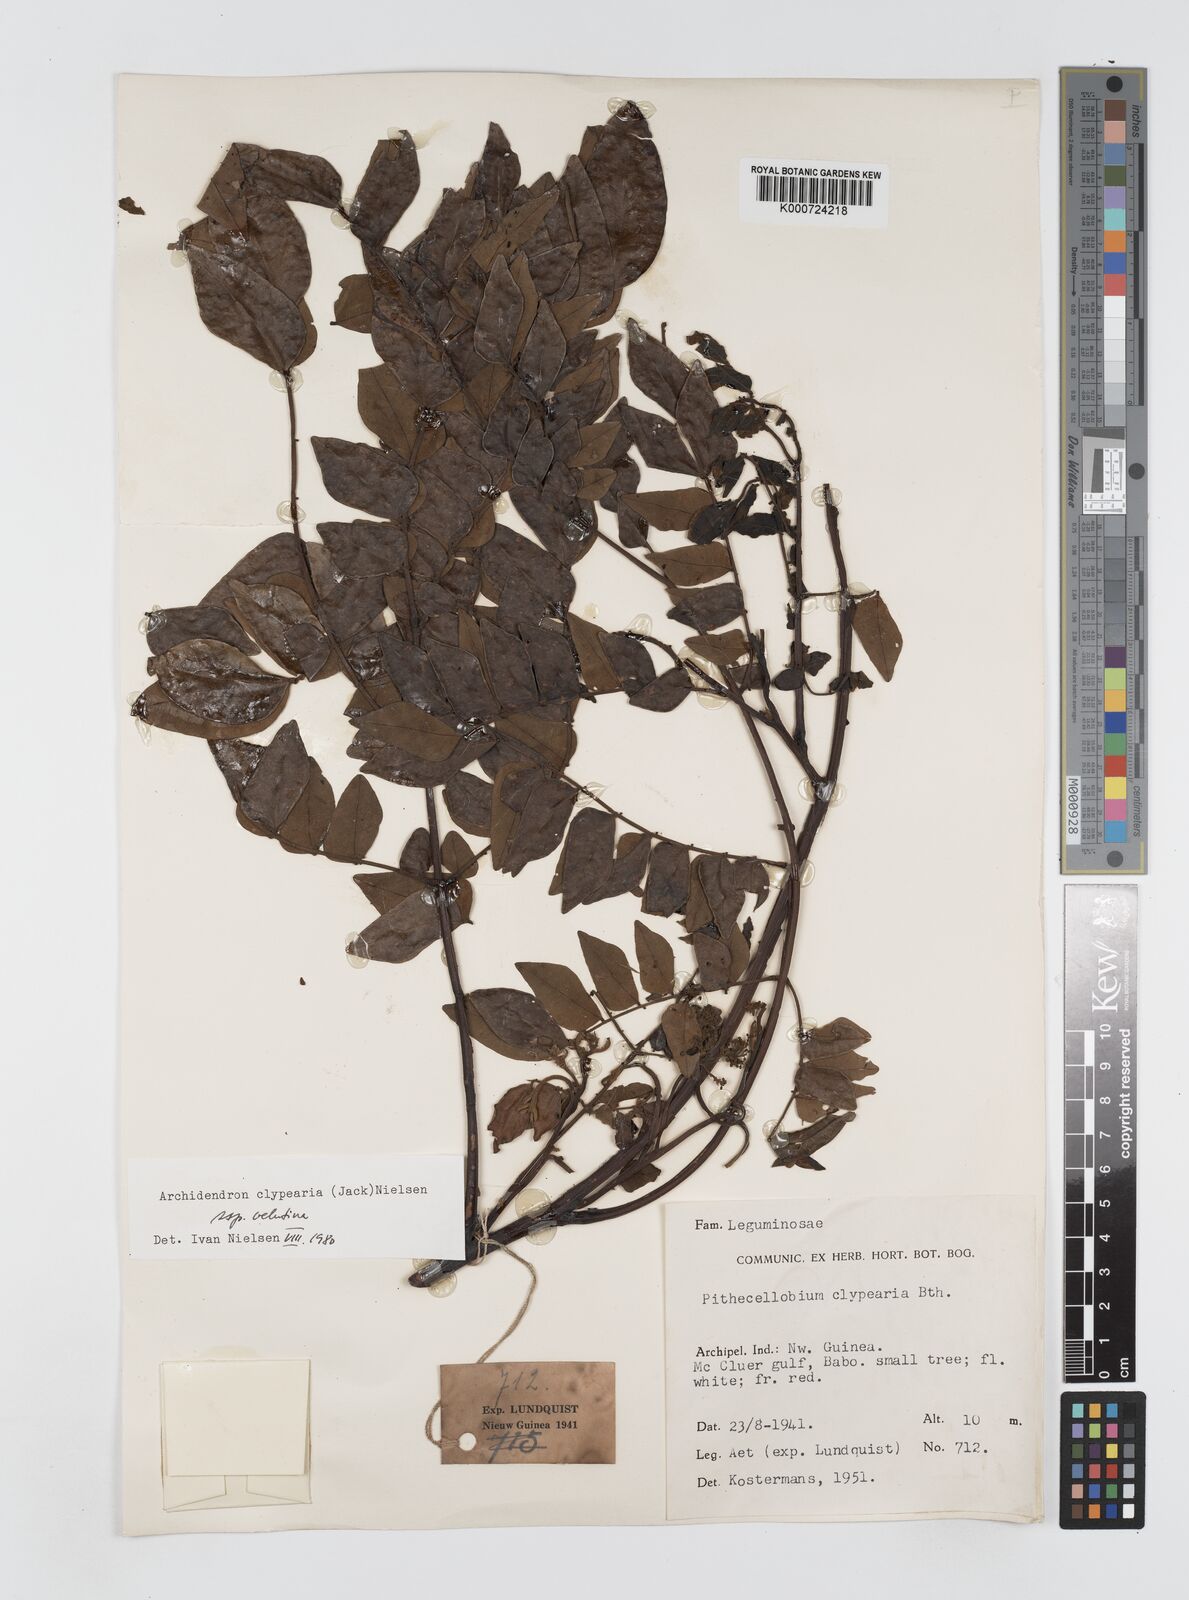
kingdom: Plantae
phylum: Tracheophyta
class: Magnoliopsida
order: Fabales
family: Fabaceae
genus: Archidendron
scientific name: Archidendron clypearia
